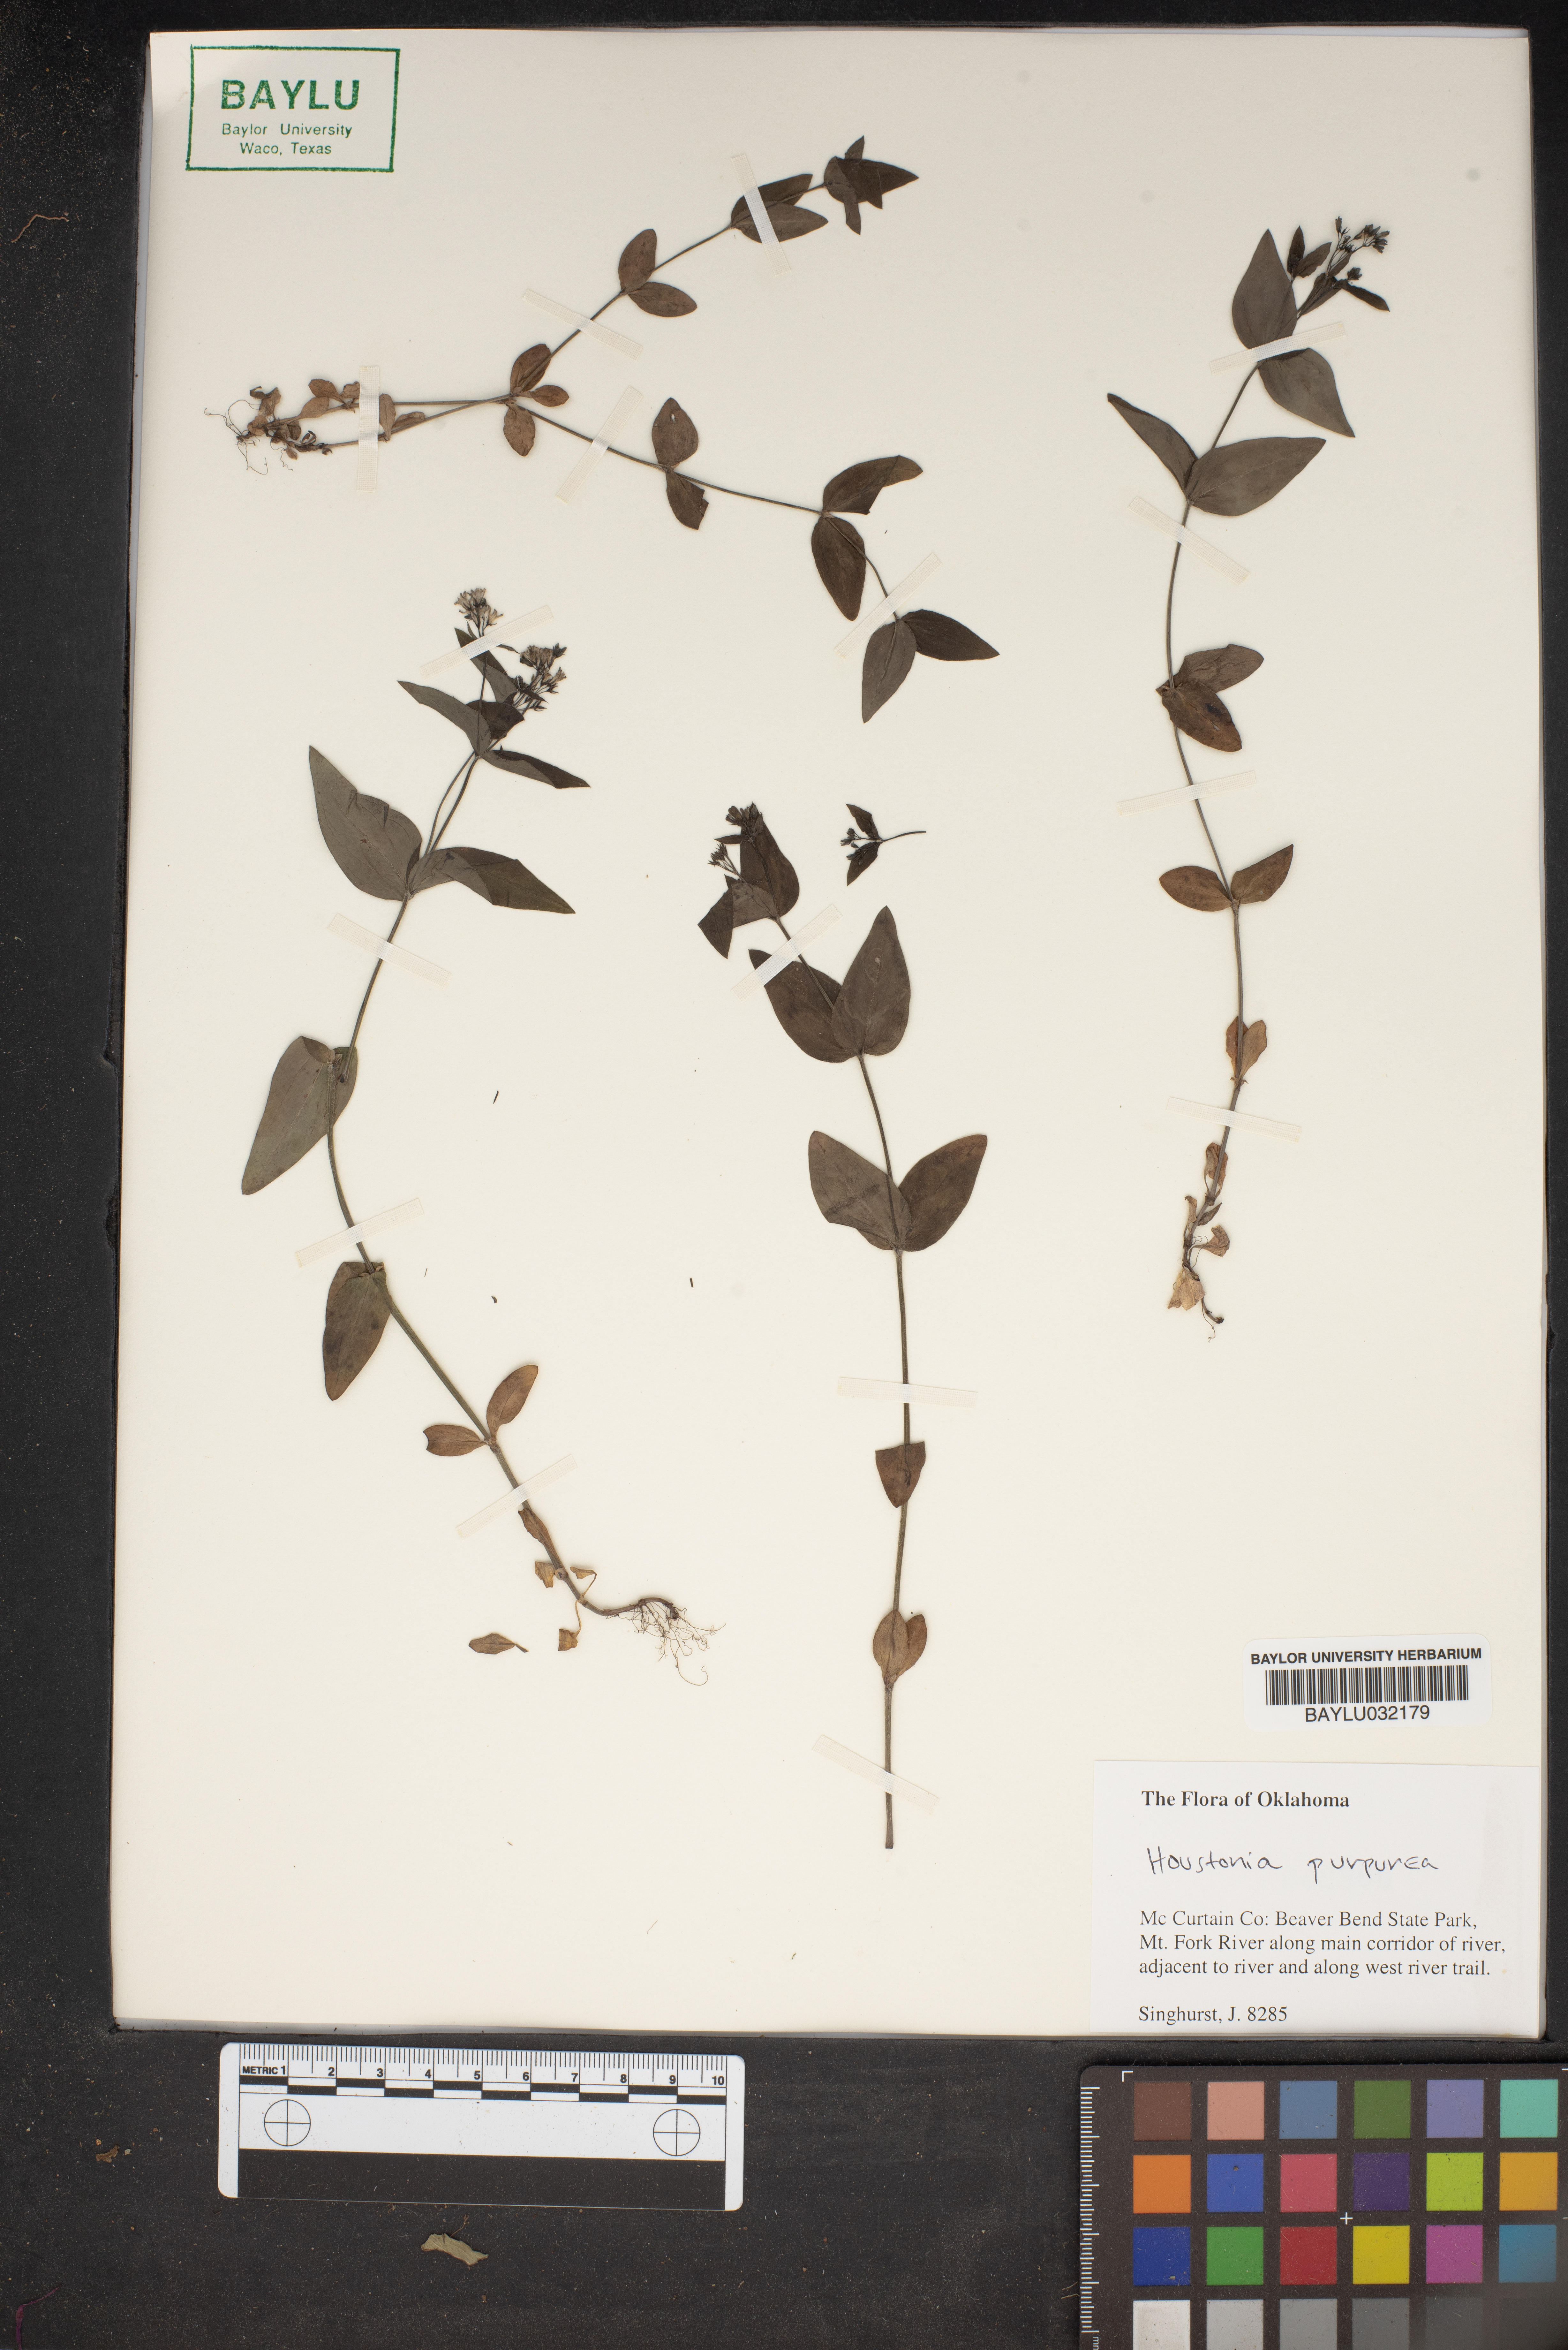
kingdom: Plantae
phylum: Tracheophyta
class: Magnoliopsida
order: Gentianales
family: Rubiaceae
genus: Houstonia
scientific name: Houstonia purpurea
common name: Summer bluet
